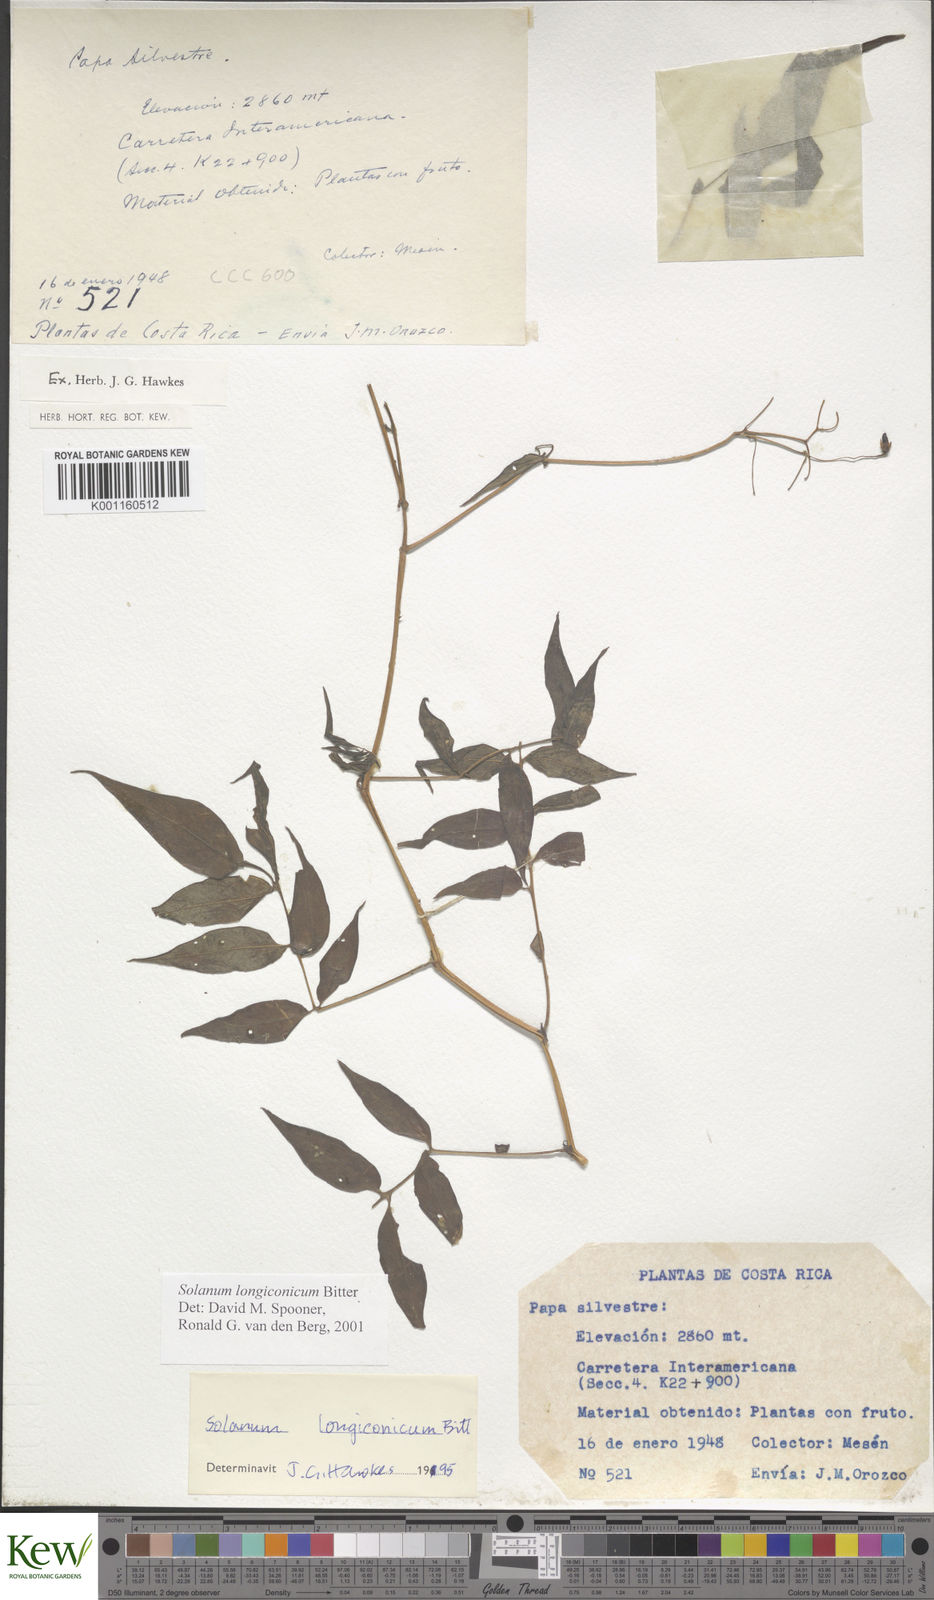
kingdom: Plantae
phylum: Tracheophyta
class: Magnoliopsida
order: Solanales
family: Solanaceae
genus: Solanum
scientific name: Solanum longiconicum
